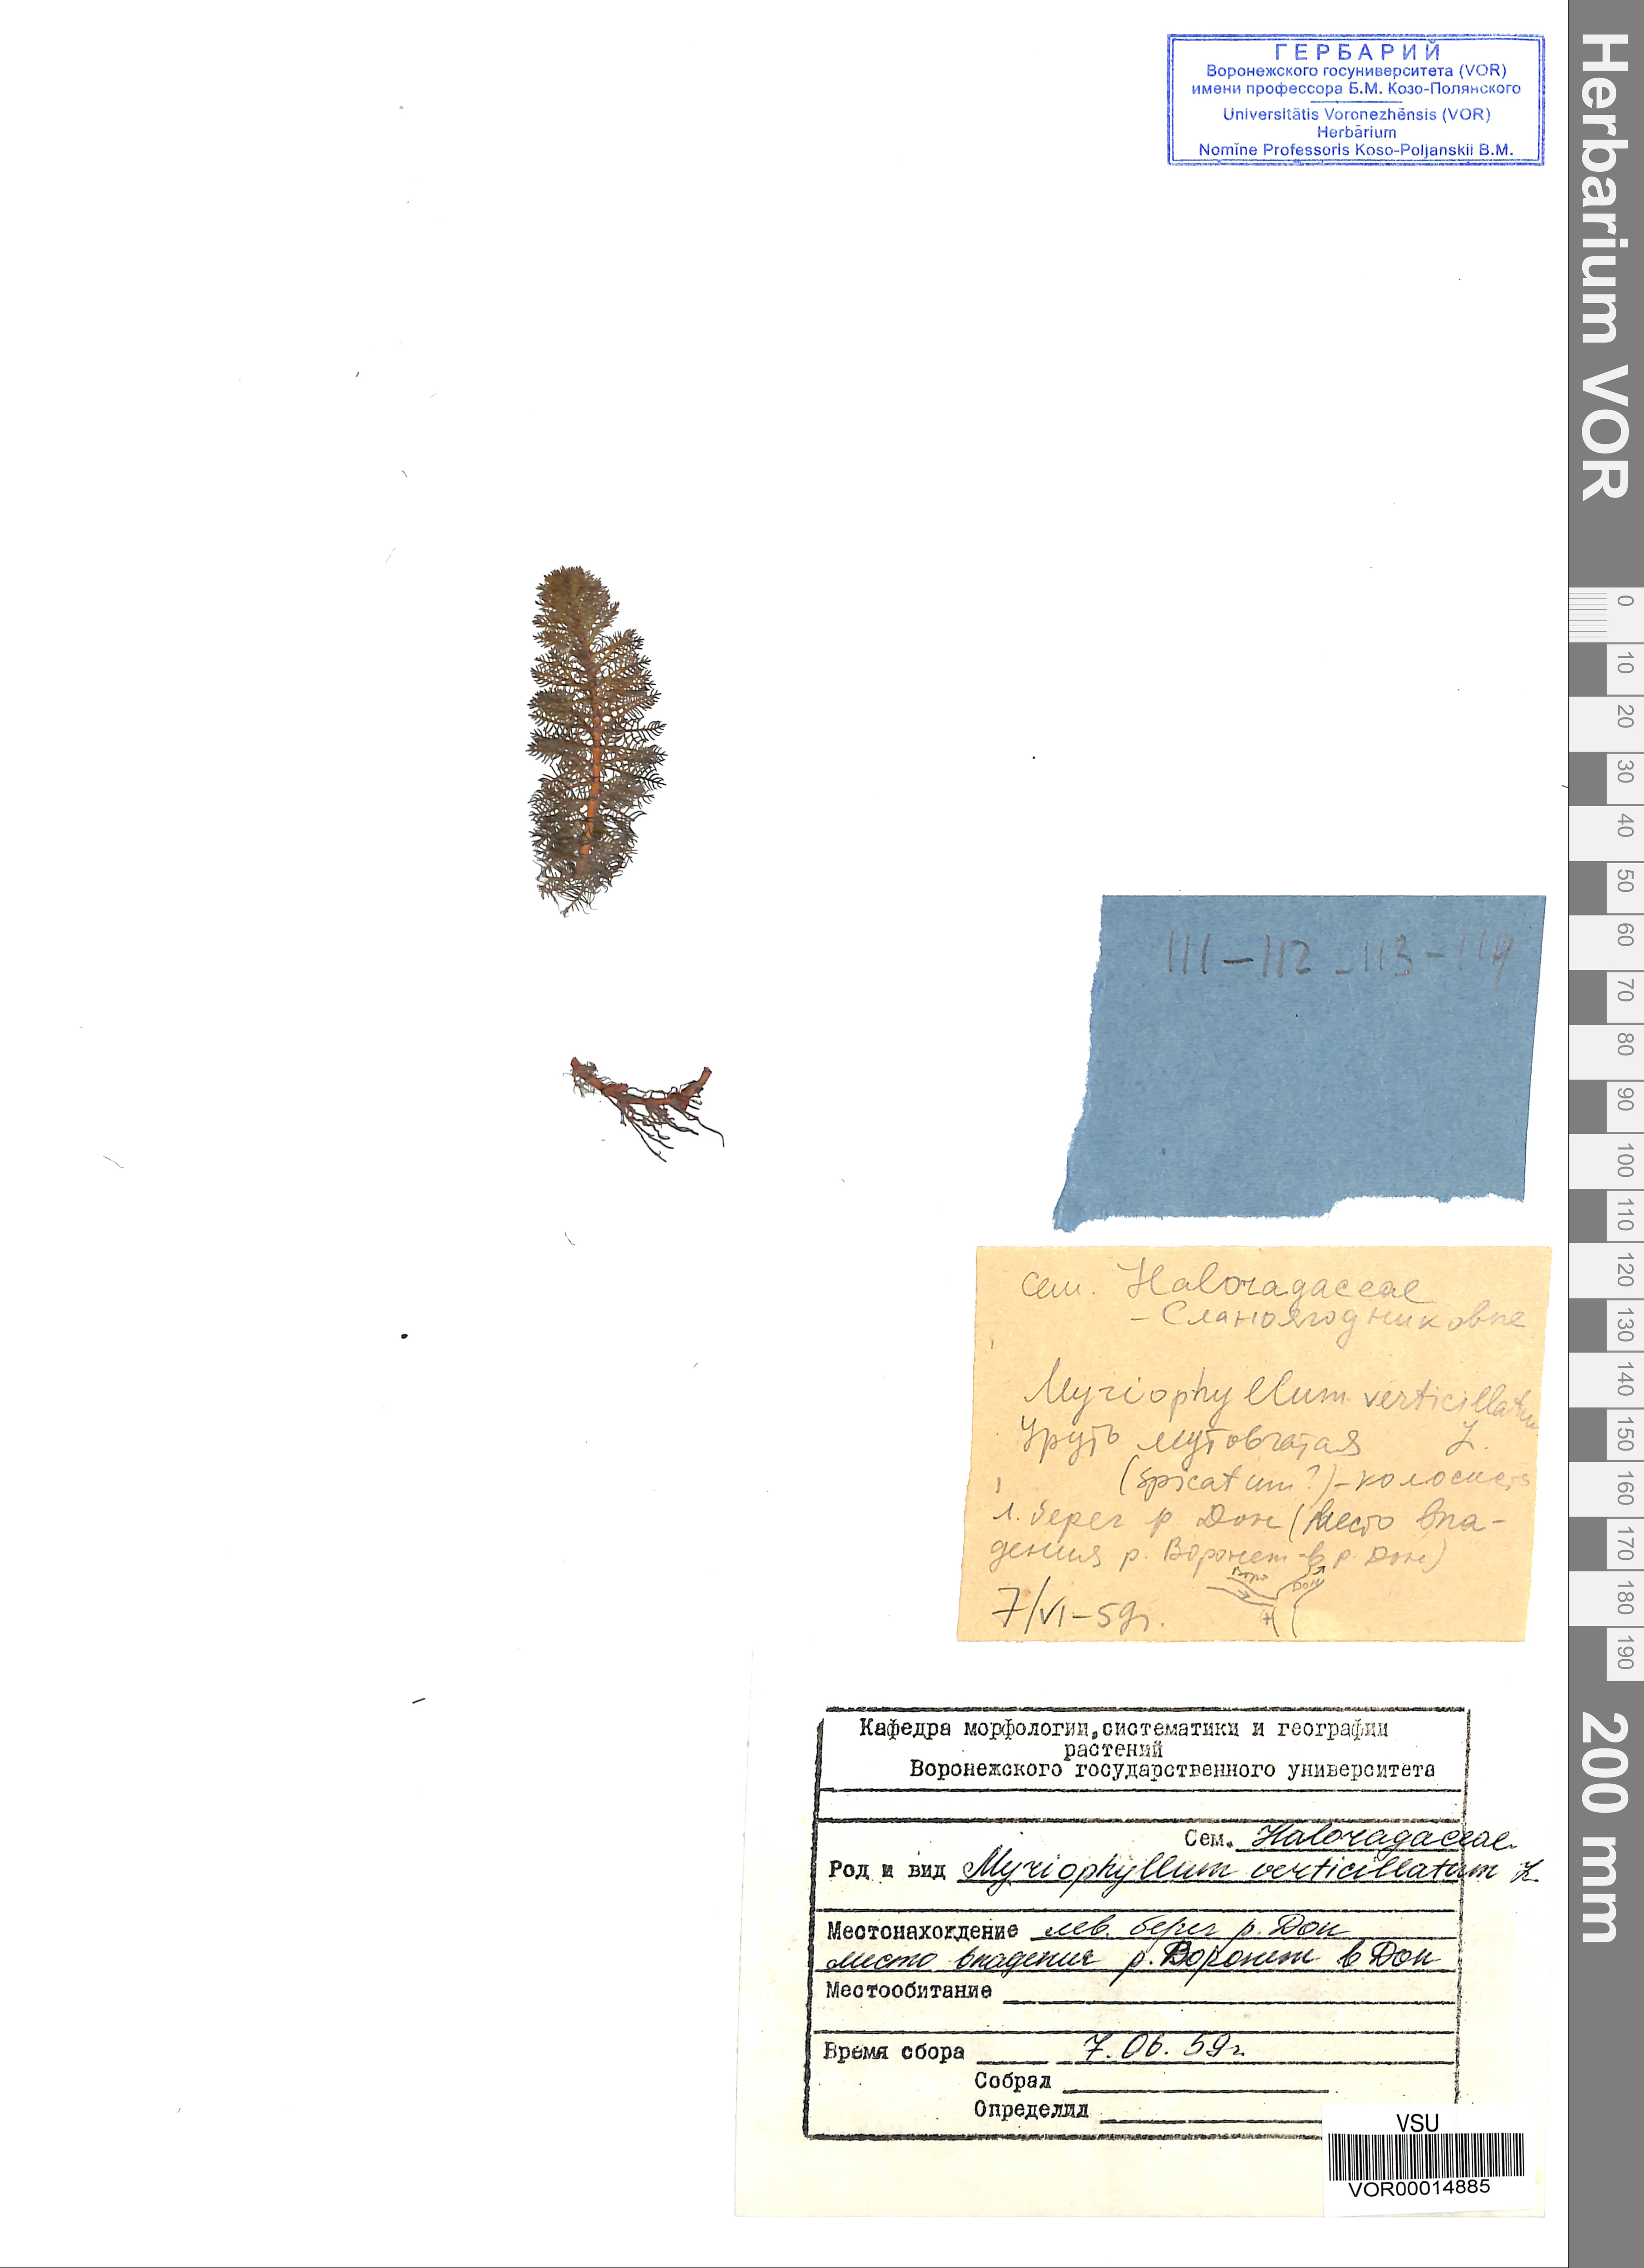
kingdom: Plantae
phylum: Tracheophyta
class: Magnoliopsida
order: Saxifragales
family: Haloragaceae
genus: Myriophyllum
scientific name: Myriophyllum verticillatum
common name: Whorled water-milfoil
